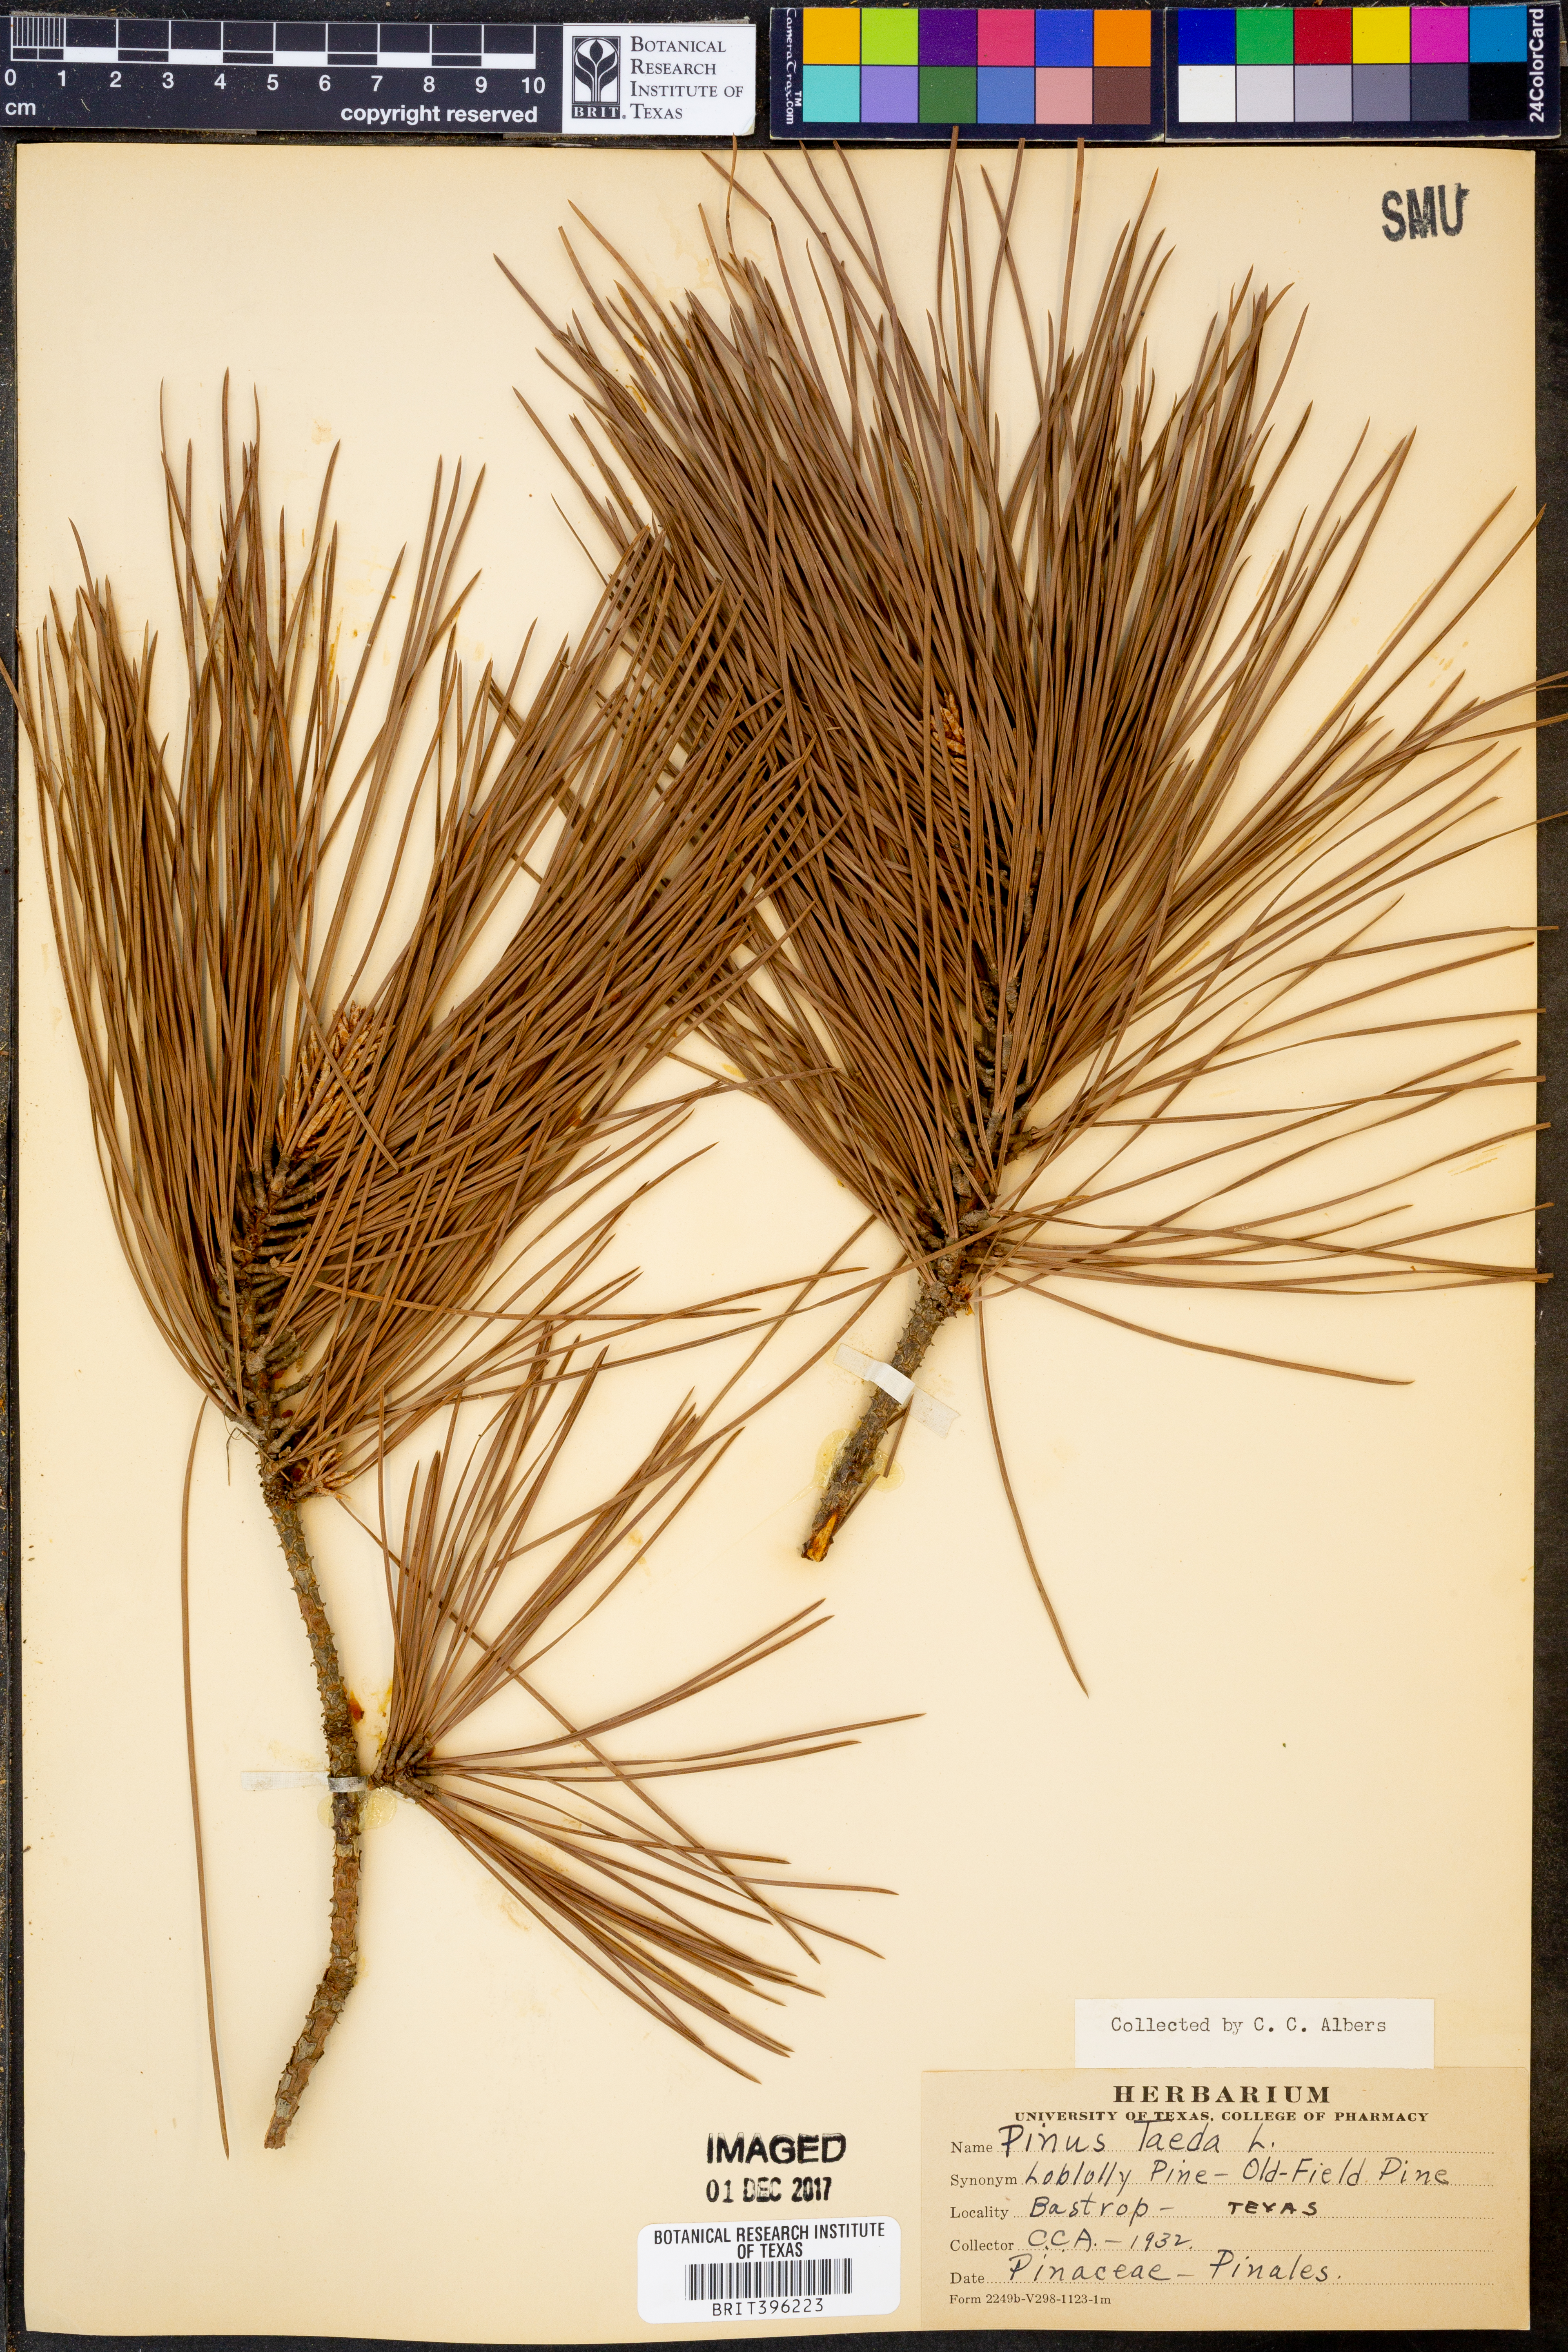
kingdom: Plantae
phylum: Tracheophyta
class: Pinopsida
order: Pinales
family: Pinaceae
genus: Pinus
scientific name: Pinus taeda
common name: Loblolly pine
